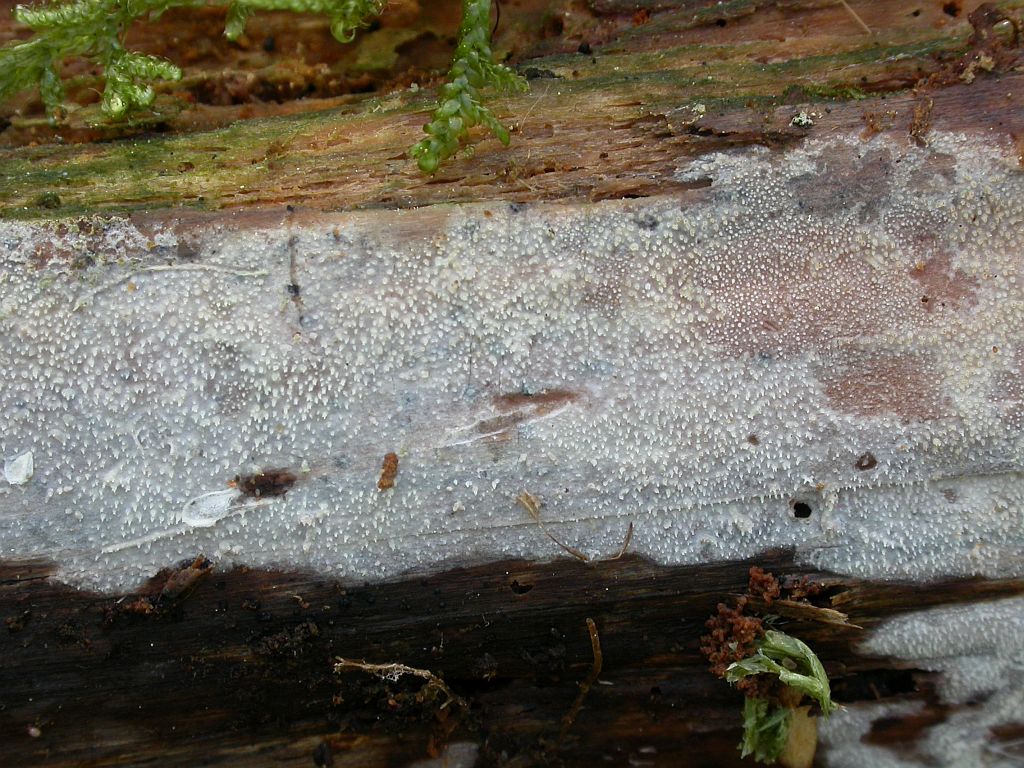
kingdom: Fungi
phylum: Basidiomycota
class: Agaricomycetes
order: Hymenochaetales
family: Rickenellaceae
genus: Resinicium
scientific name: Resinicium bicolor
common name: almindelig vokstand
